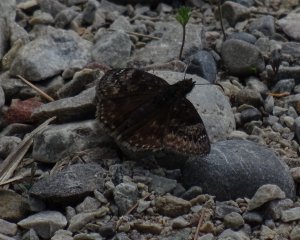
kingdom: Animalia
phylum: Arthropoda
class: Insecta
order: Lepidoptera
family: Hesperiidae
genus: Gesta
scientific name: Gesta
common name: Wild Indigo Duskywing
